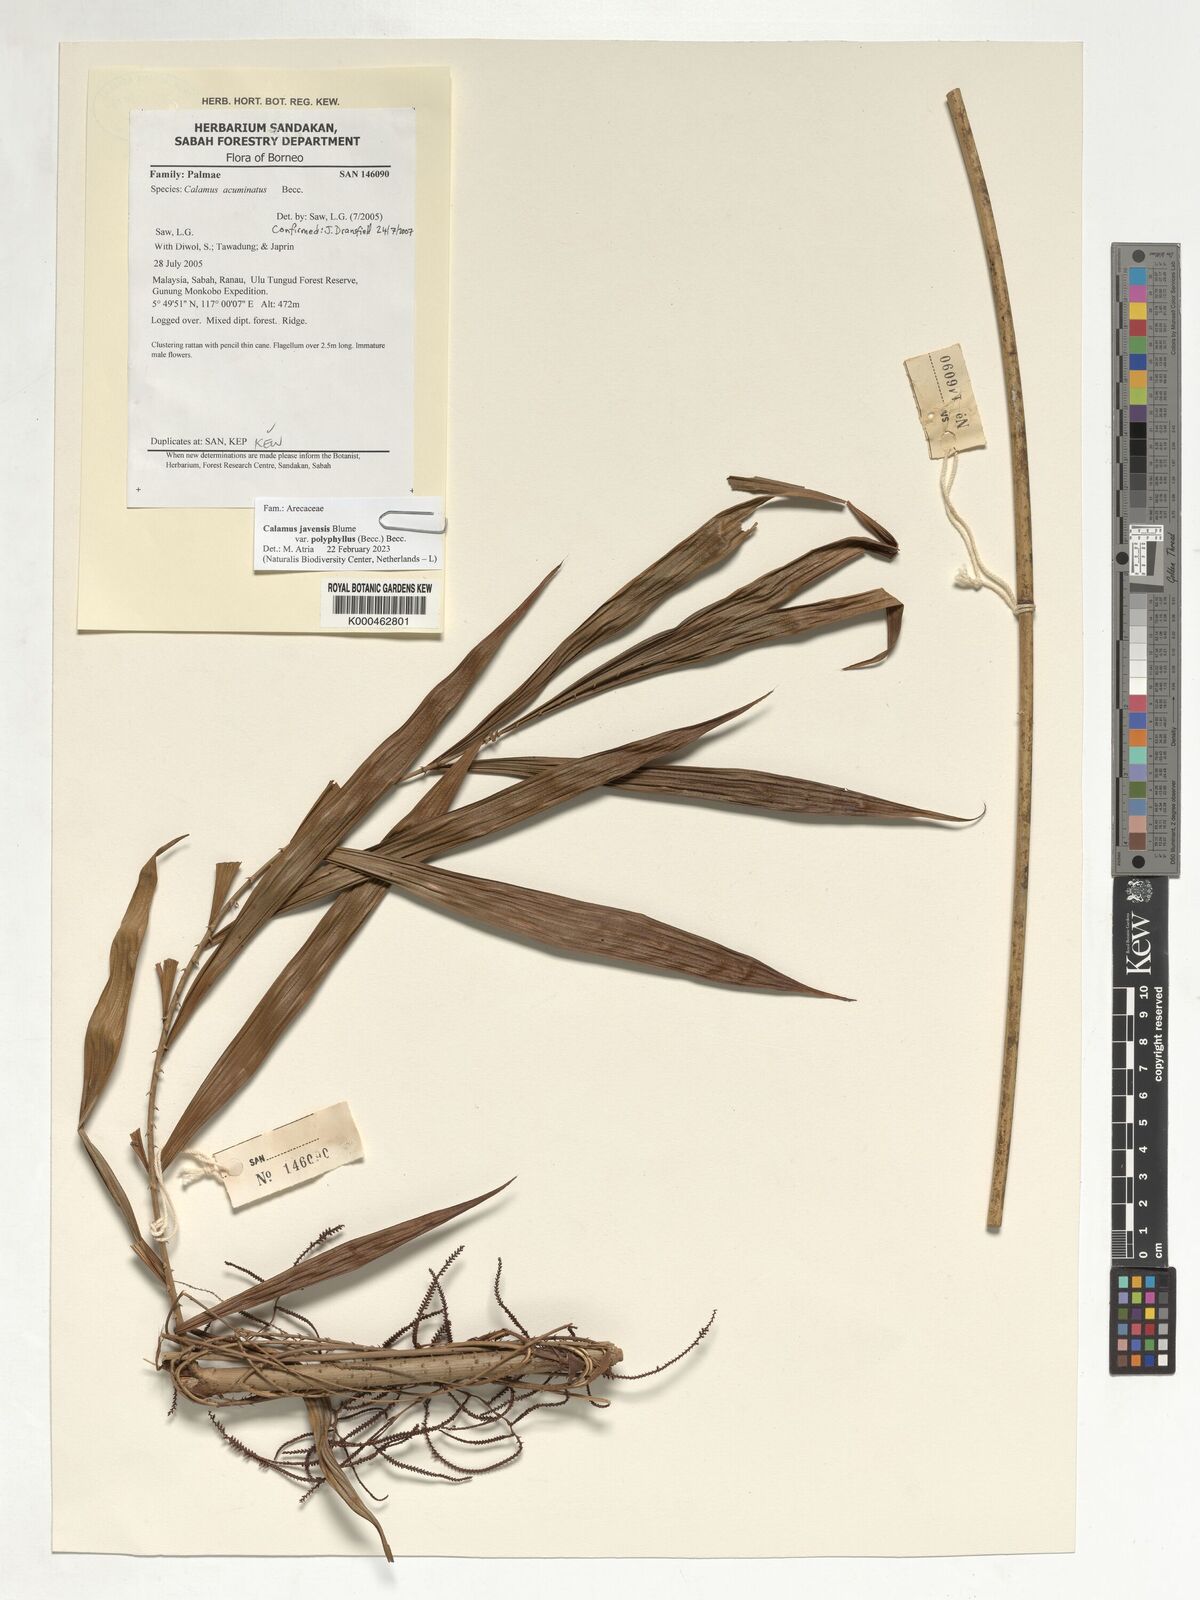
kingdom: Plantae
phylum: Tracheophyta
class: Liliopsida
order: Arecales
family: Arecaceae
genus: Calamus
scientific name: Calamus javensis
